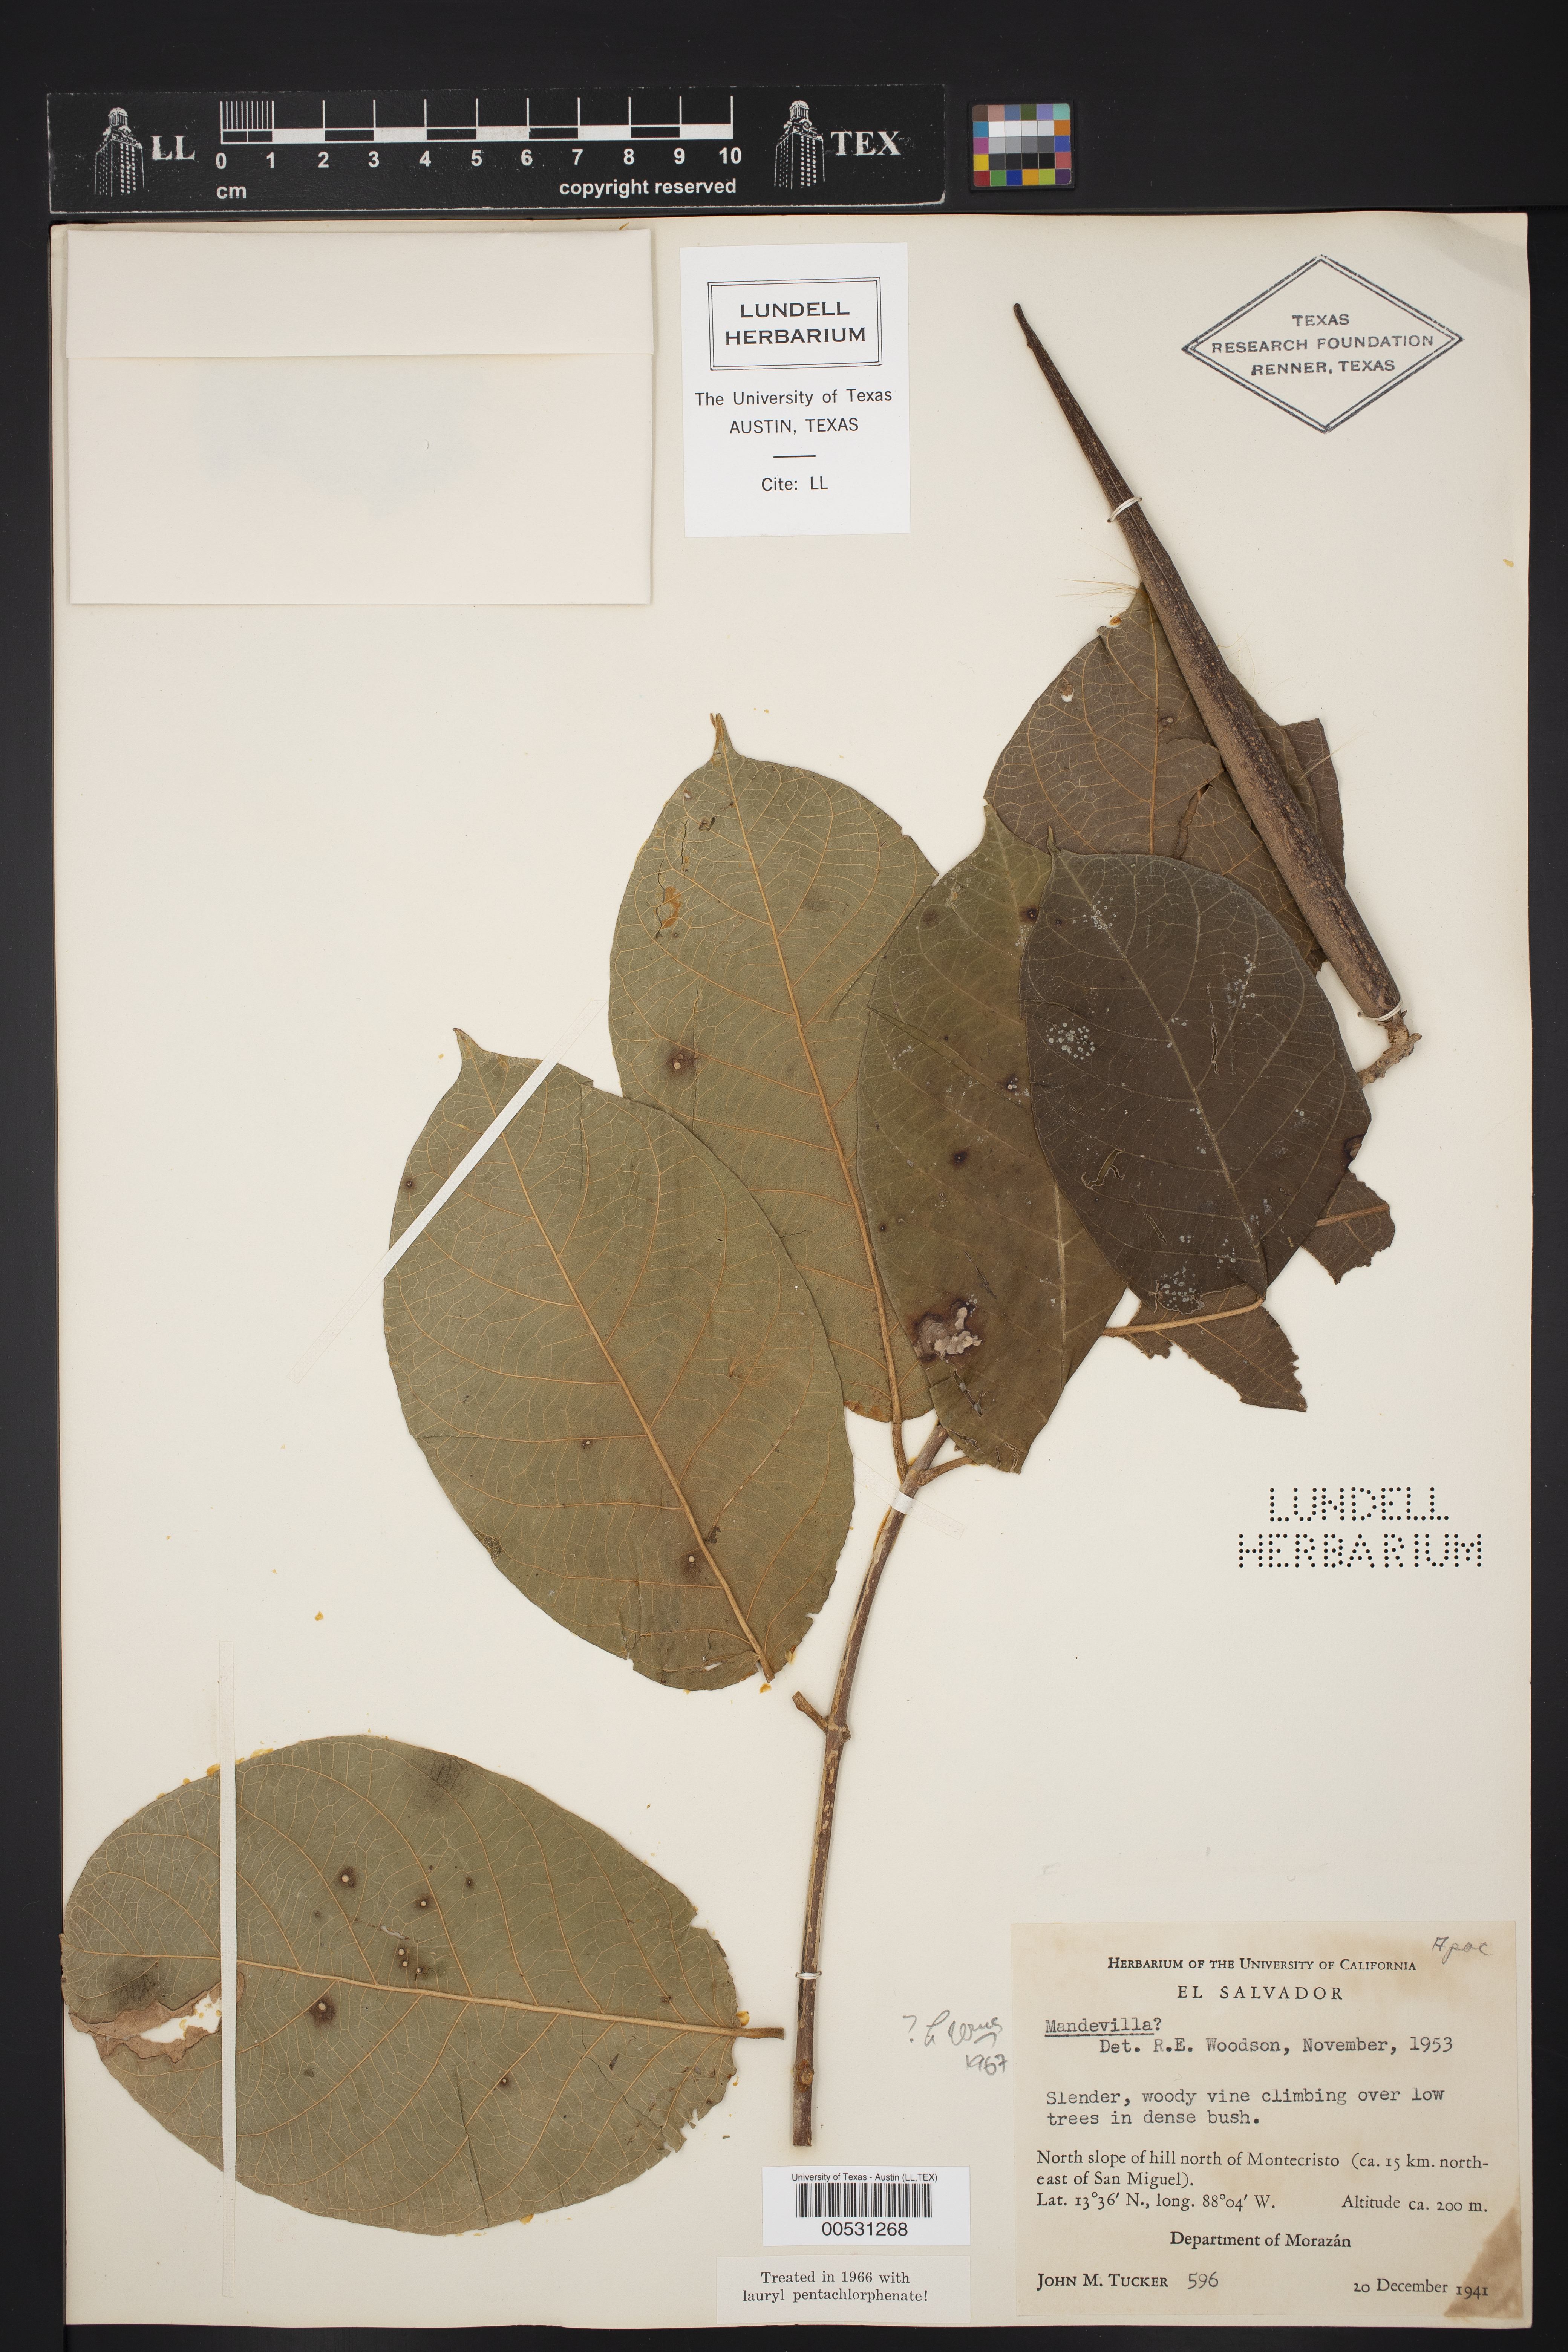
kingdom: Plantae
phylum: Tracheophyta
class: Magnoliopsida
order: Gentianales
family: Apocynaceae
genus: Mandevilla
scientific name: Mandevilla
